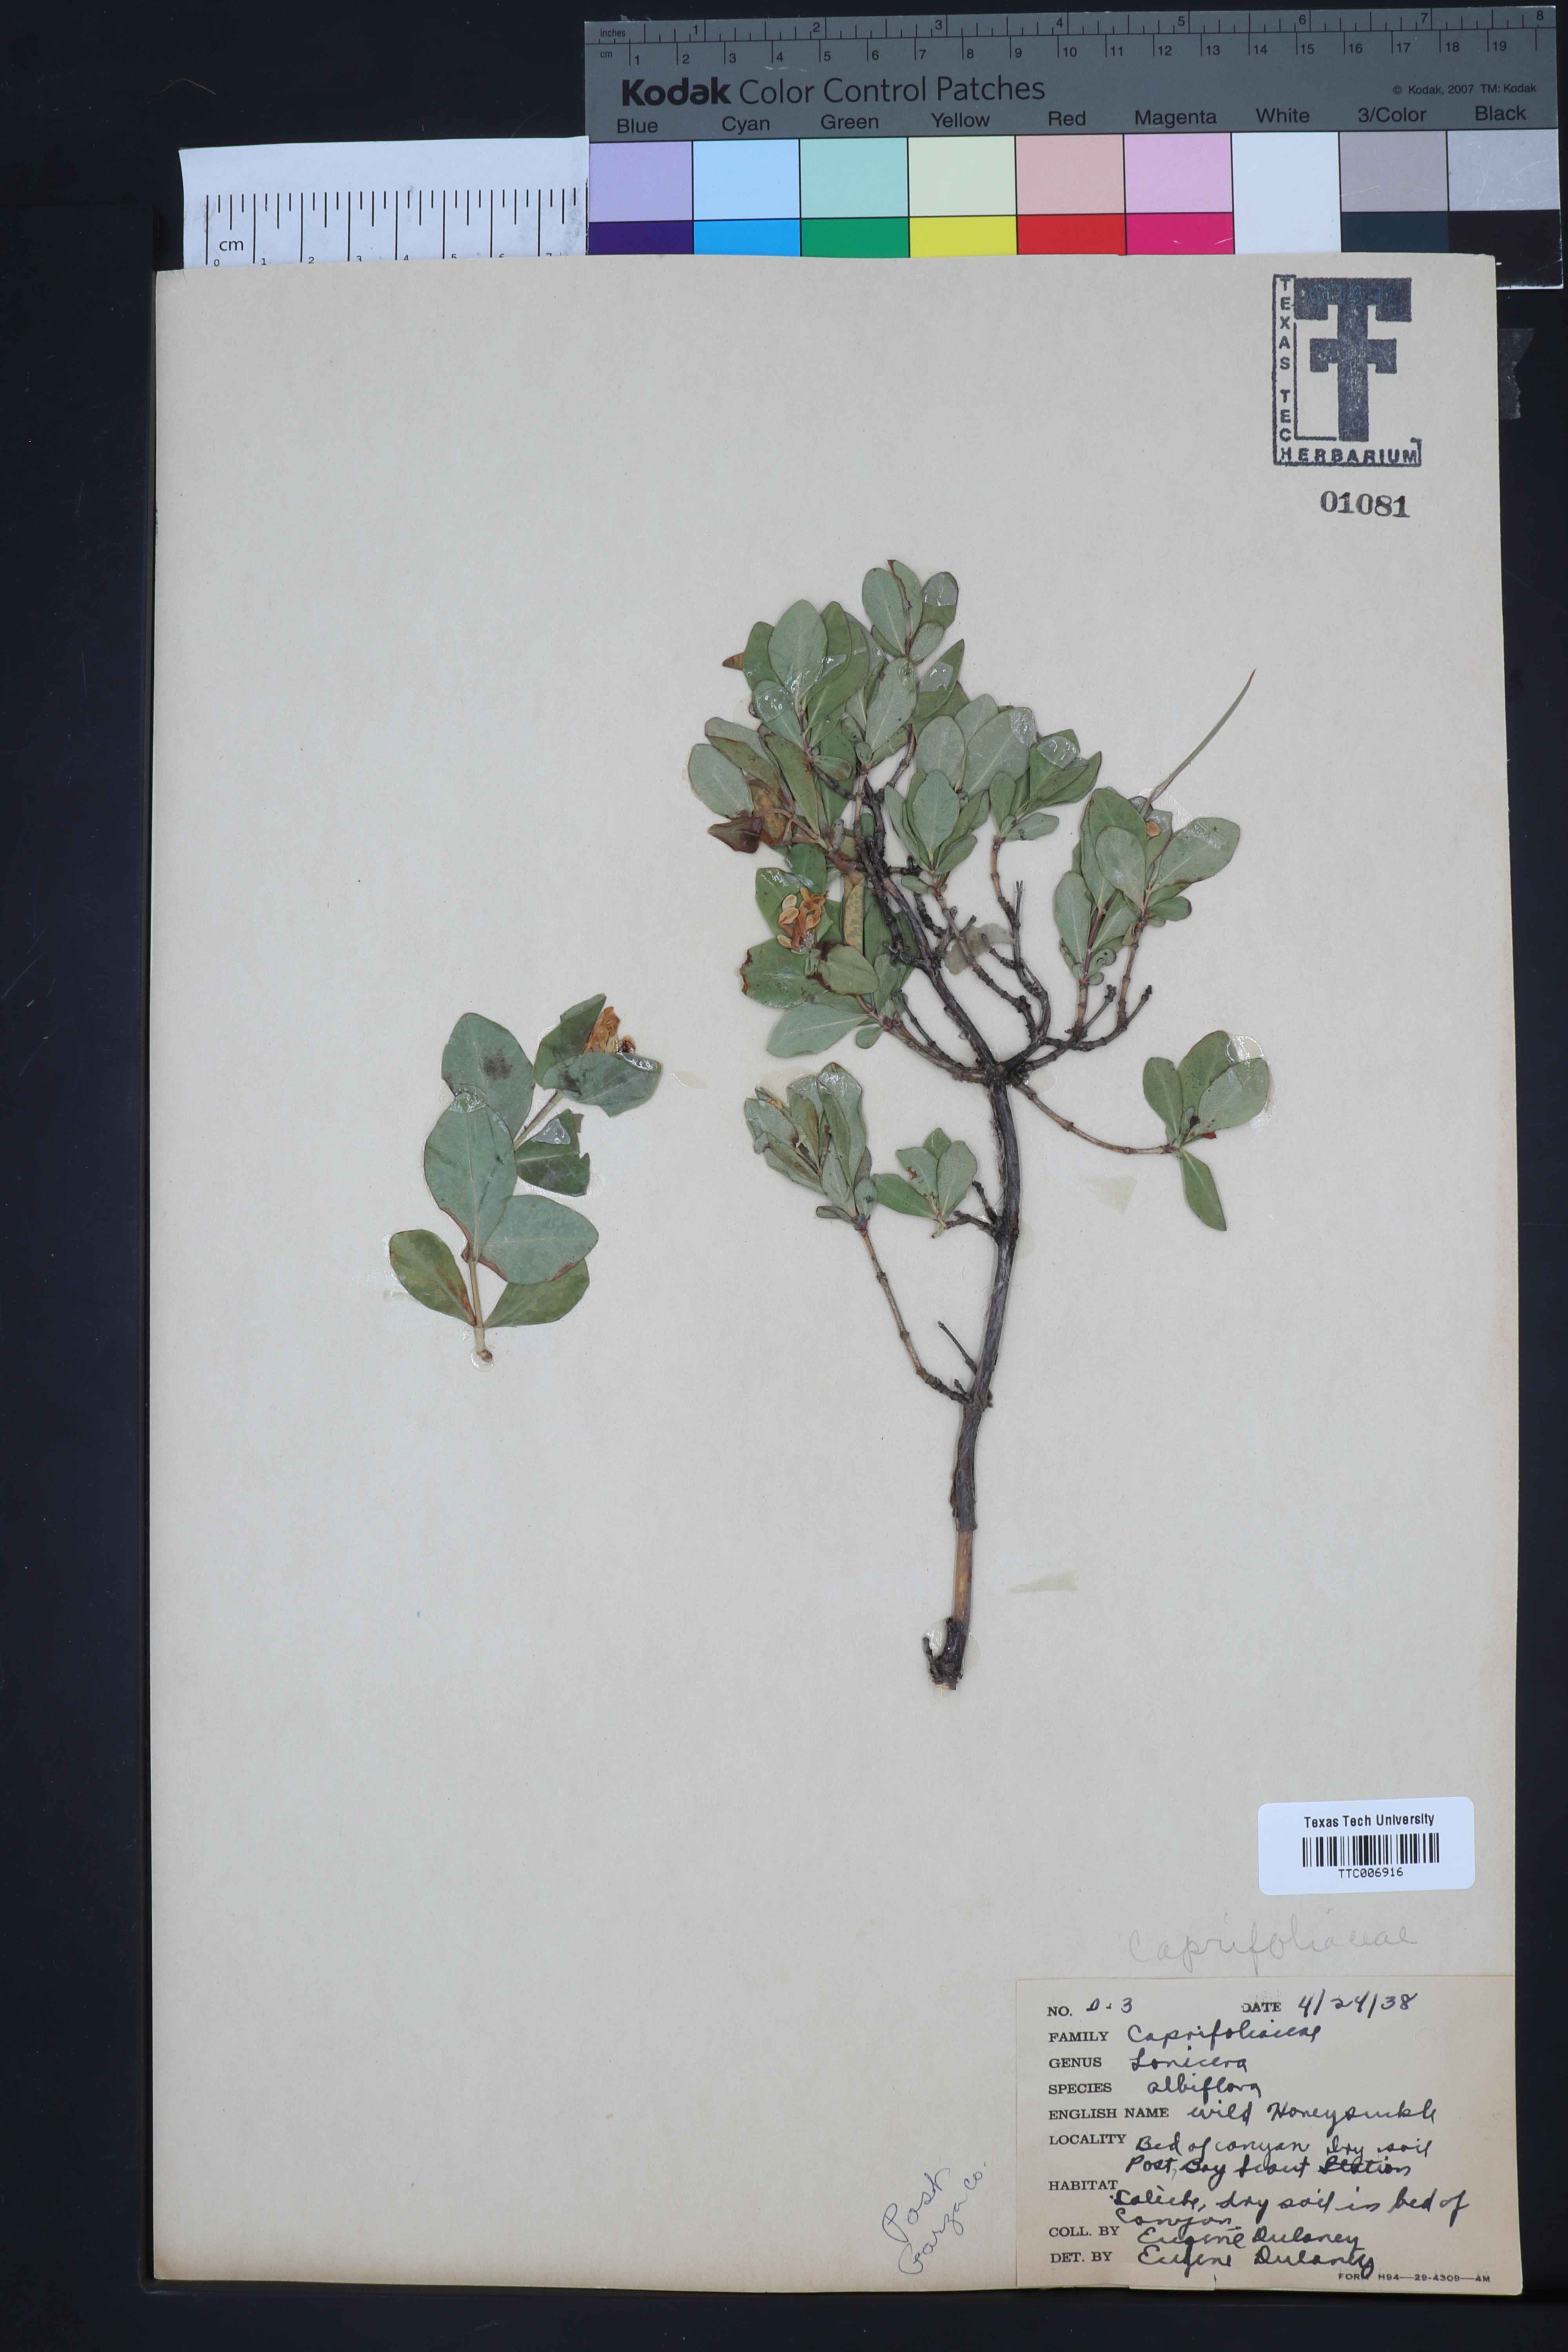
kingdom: Plantae
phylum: Tracheophyta
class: Magnoliopsida
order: Dipsacales
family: Caprifoliaceae
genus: Lonicera
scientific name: Lonicera albiflora
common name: White honeysuckle
